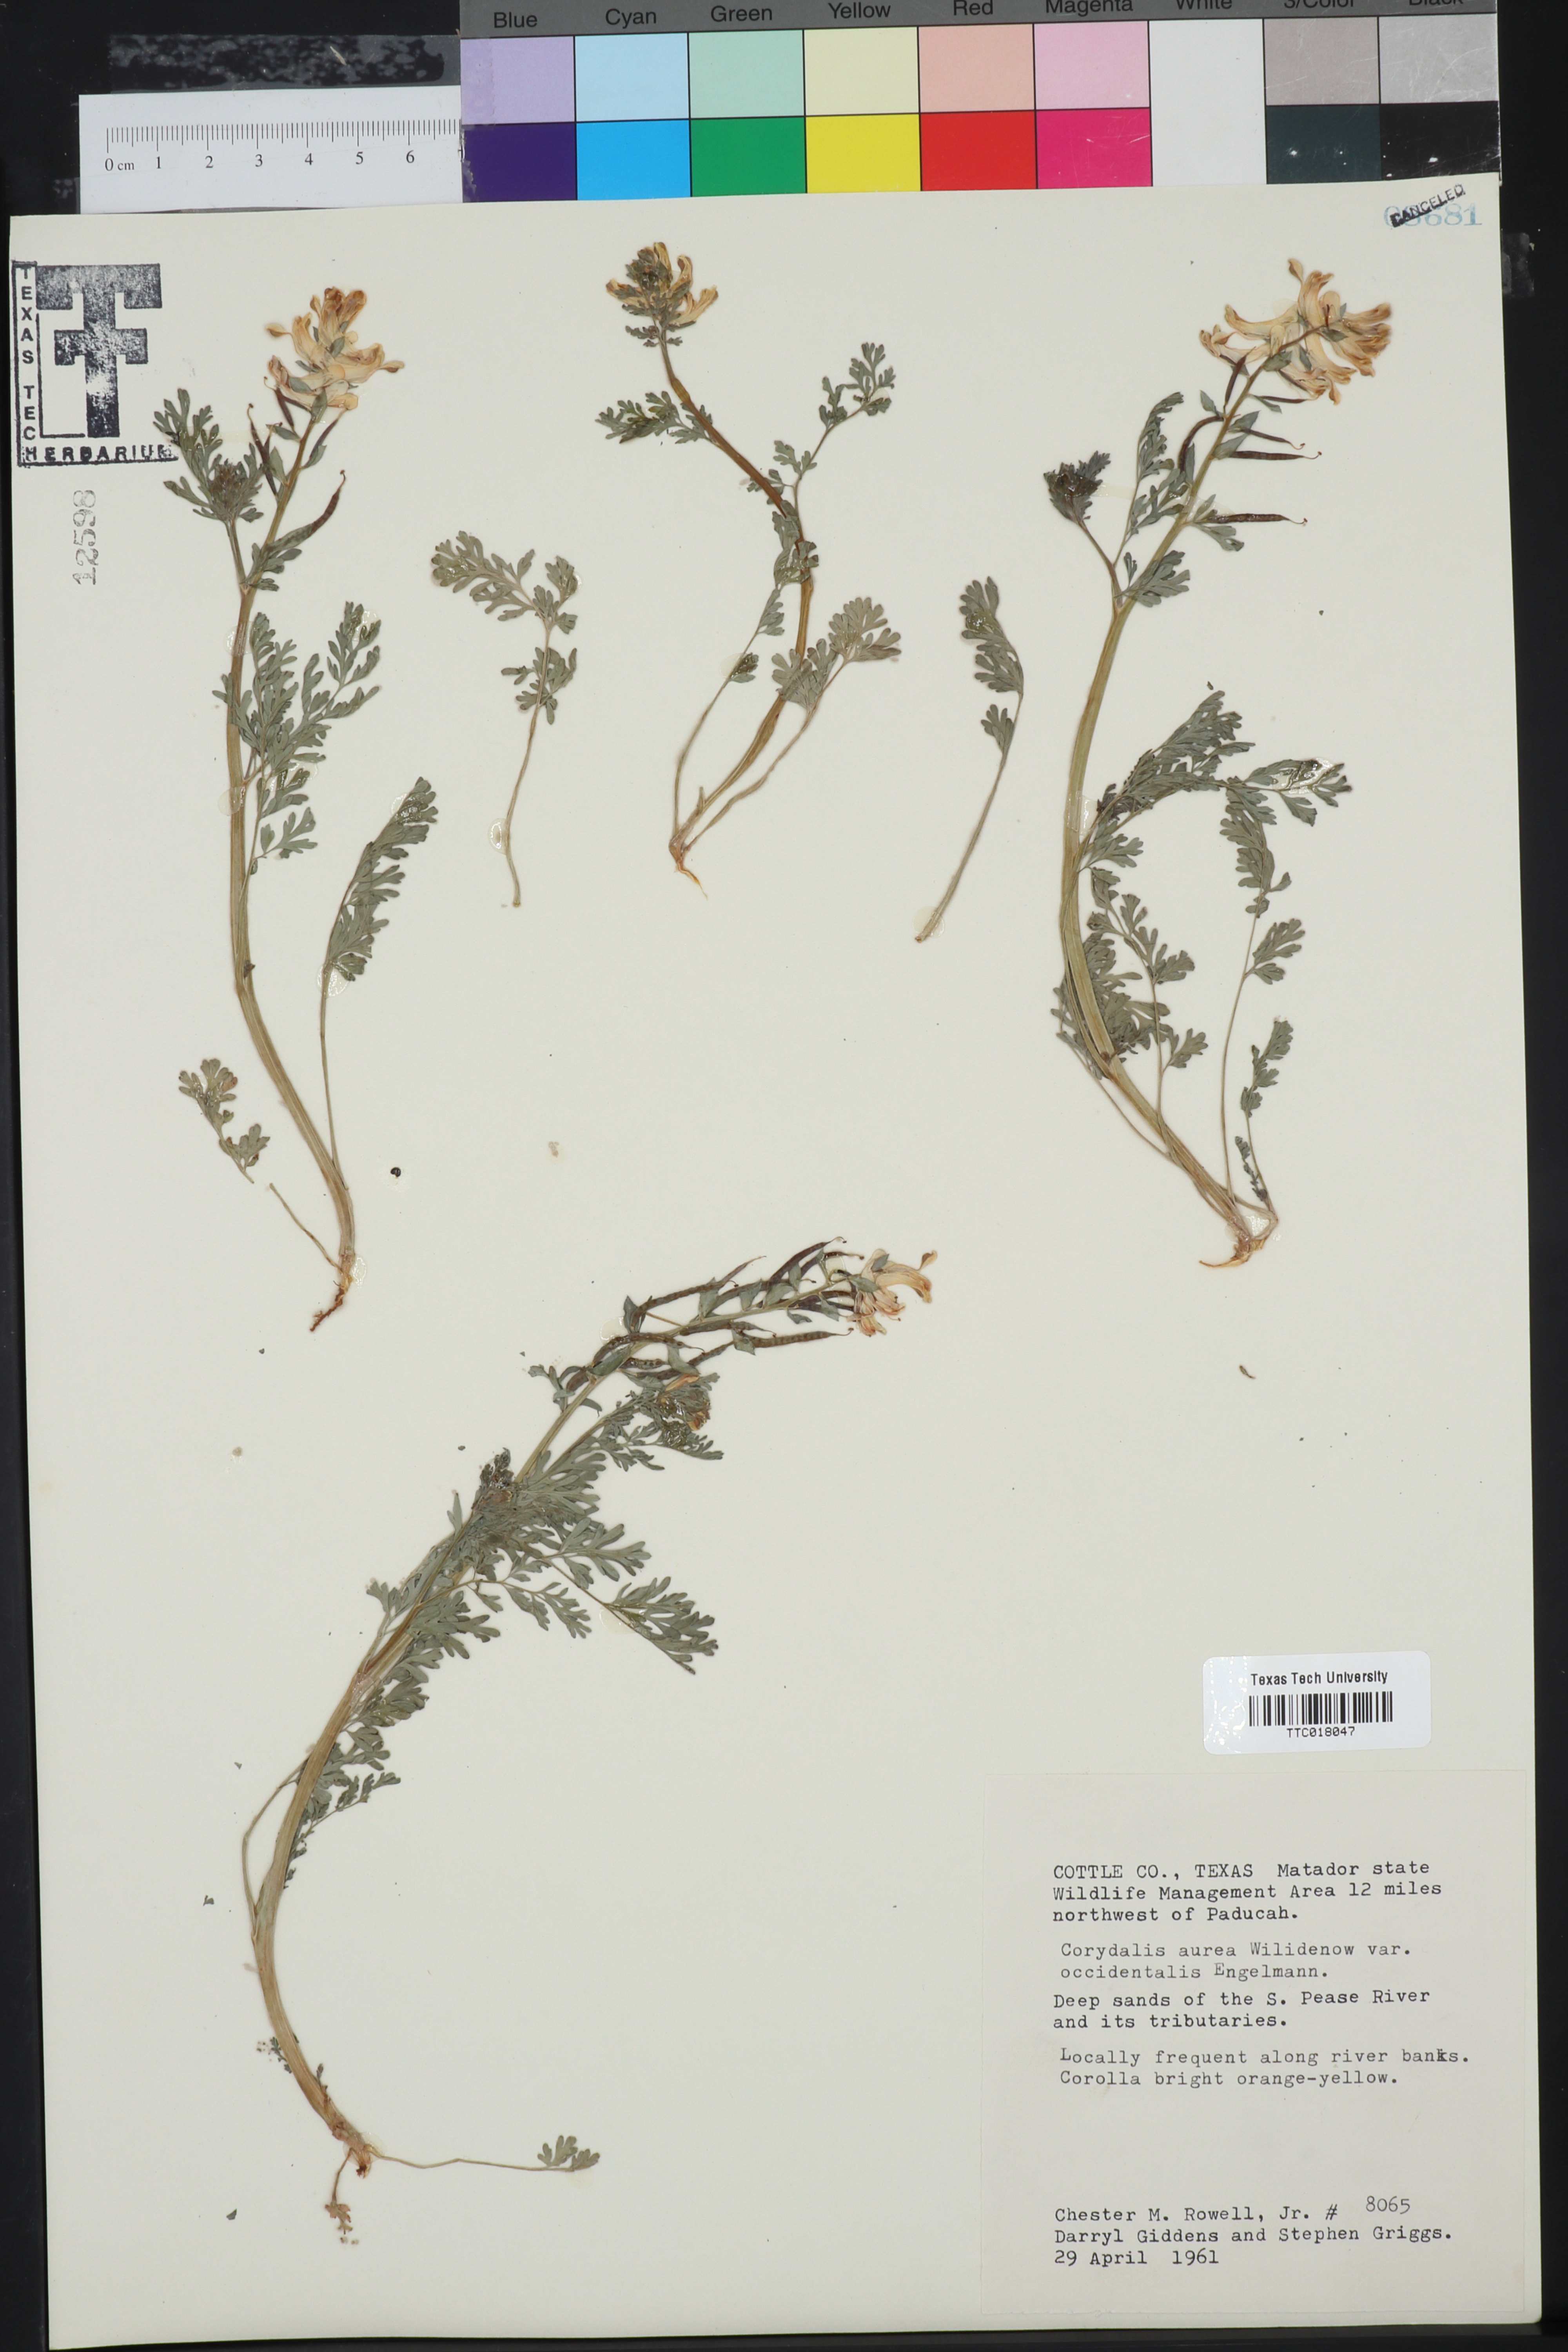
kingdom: Plantae
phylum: Tracheophyta
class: Magnoliopsida
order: Ranunculales
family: Papaveraceae
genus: Corydalis
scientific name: Corydalis curvisiliqua
